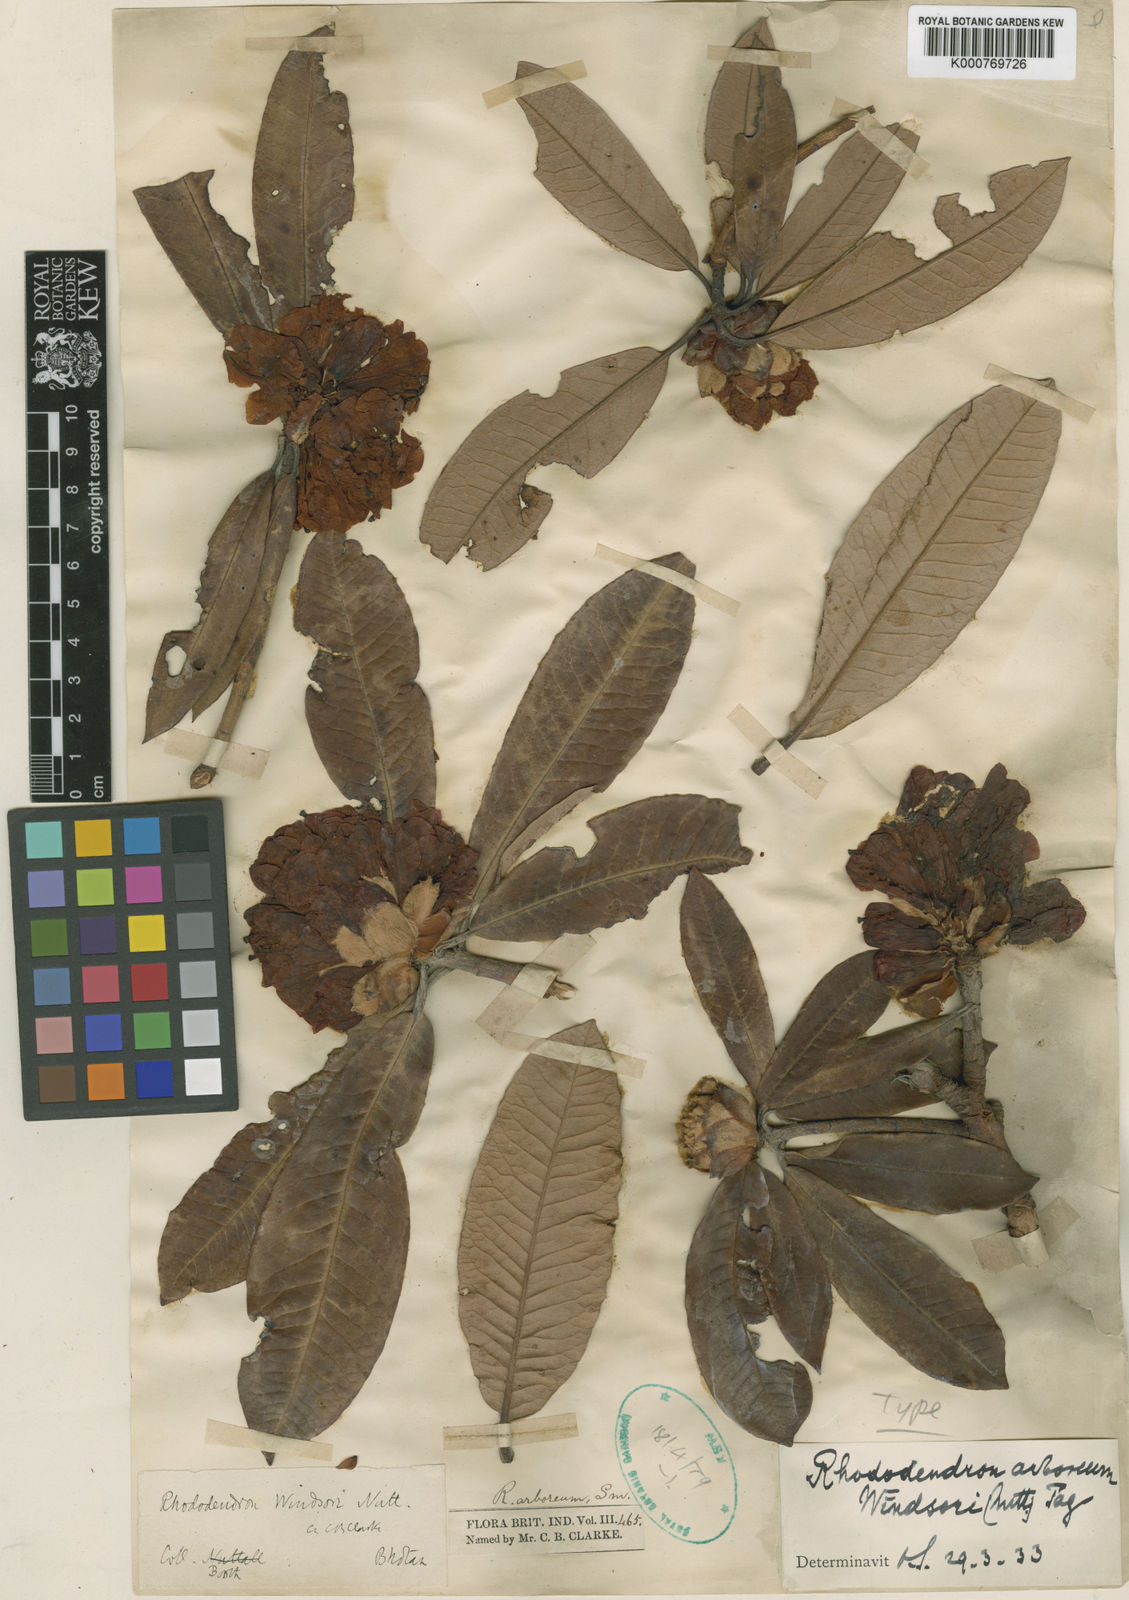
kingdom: Plantae
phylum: Tracheophyta
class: Magnoliopsida
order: Ericales
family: Ericaceae
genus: Rhododendron
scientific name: Rhododendron arboreum
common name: Tree rhododendron
